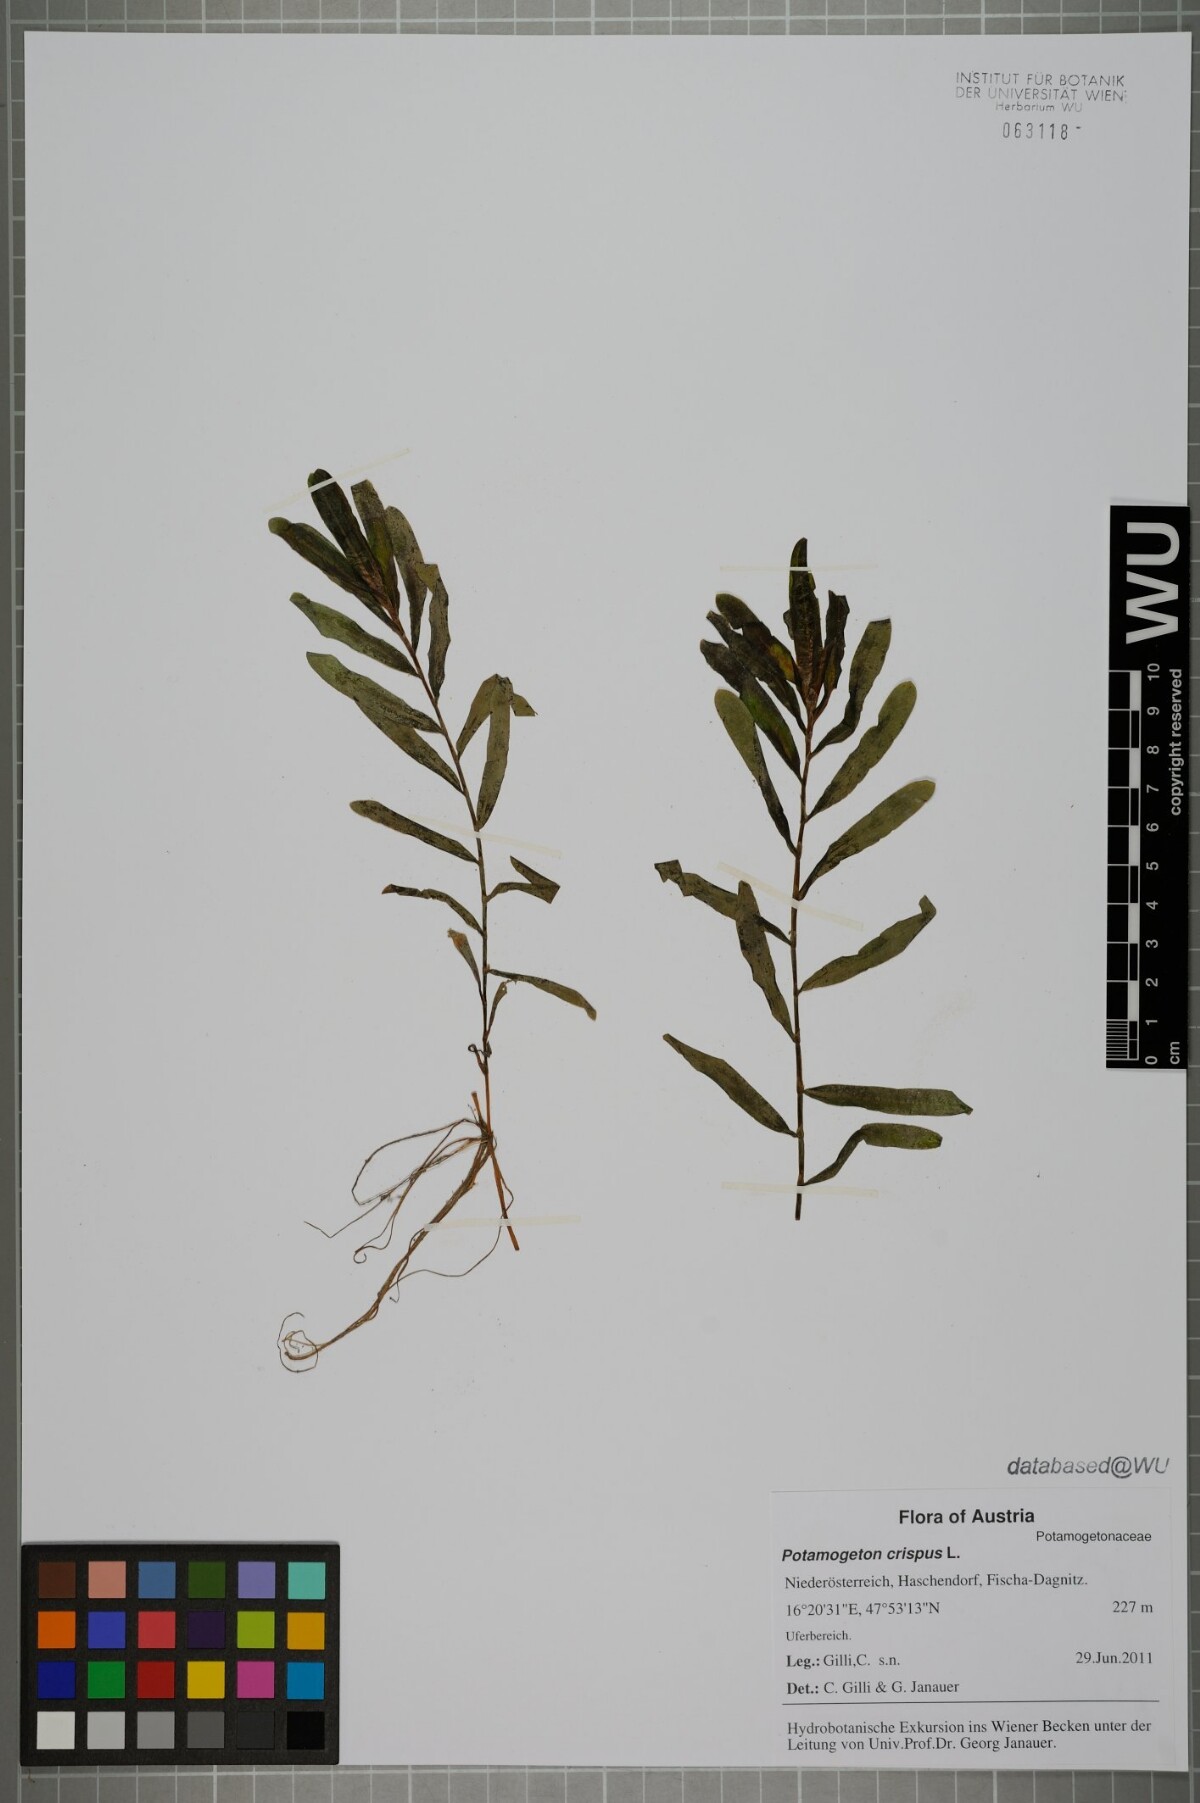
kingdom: Plantae
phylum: Tracheophyta
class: Liliopsida
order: Alismatales
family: Potamogetonaceae
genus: Potamogeton
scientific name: Potamogeton crispus
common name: Curled pondweed
